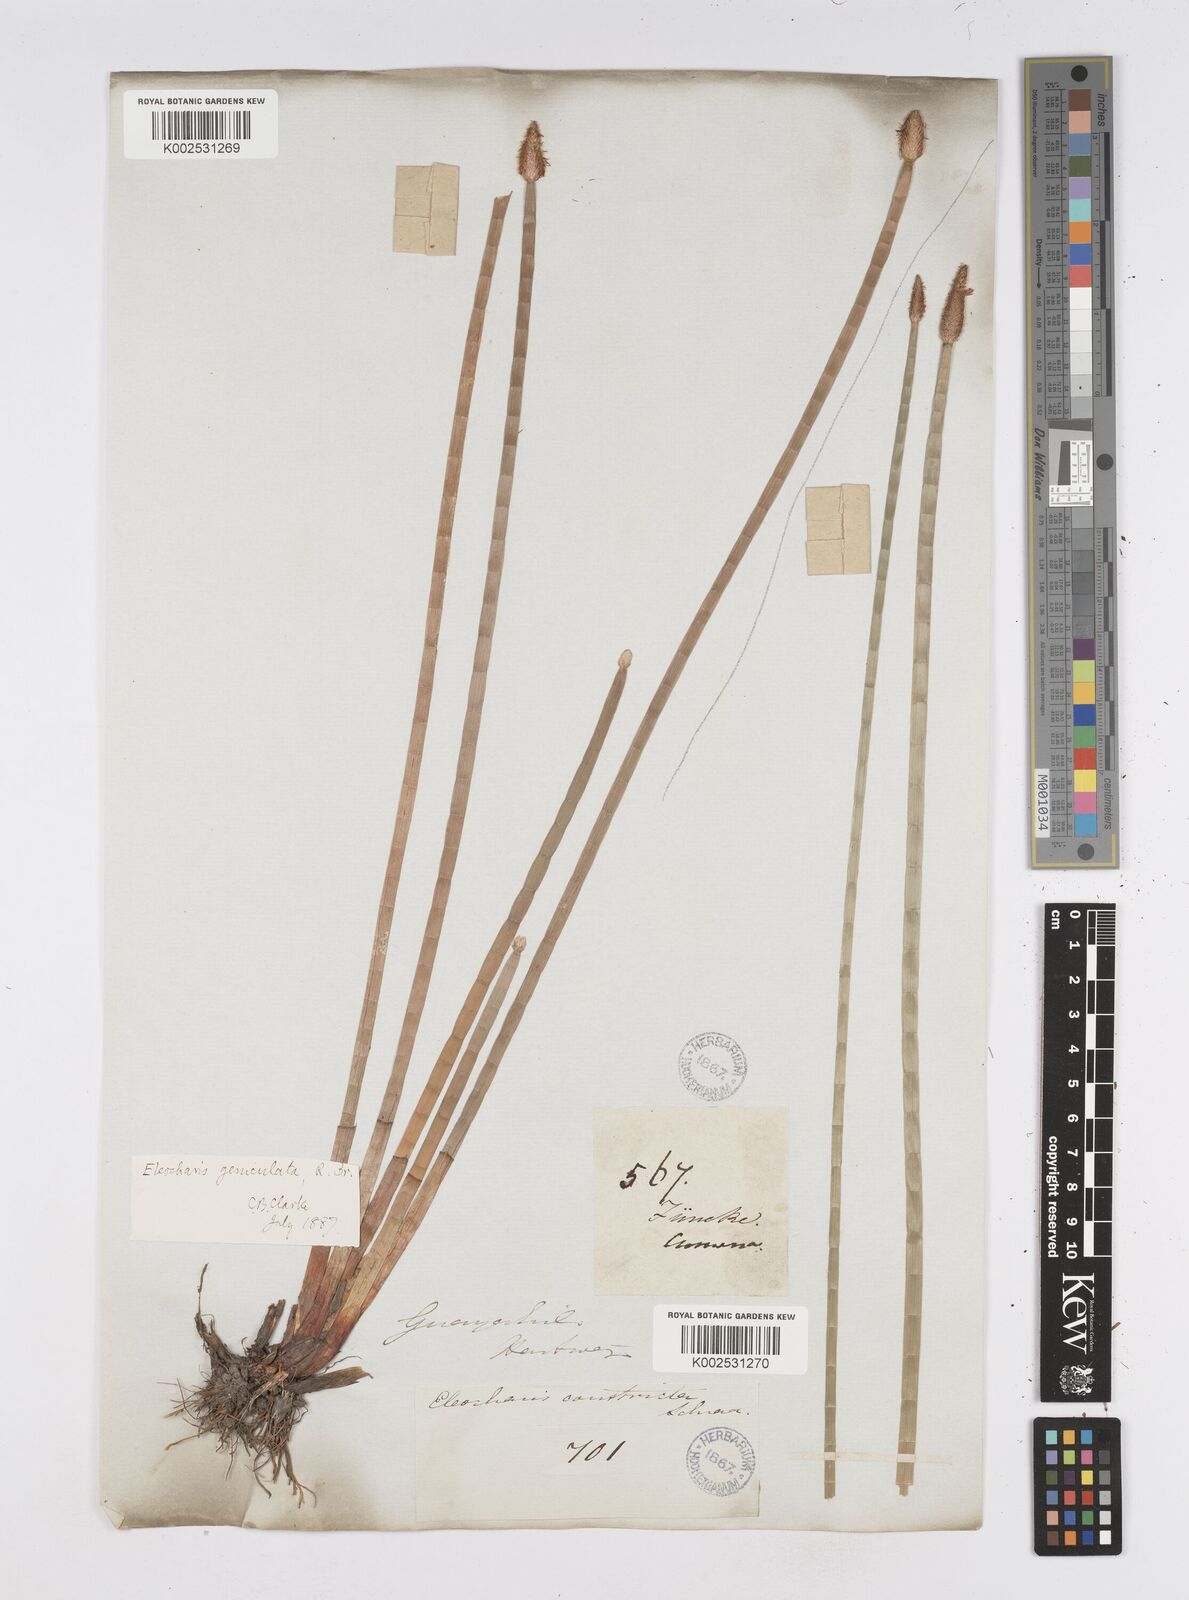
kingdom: Plantae
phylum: Tracheophyta
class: Liliopsida
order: Poales
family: Cyperaceae
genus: Eleocharis
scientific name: Eleocharis elegans
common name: Elegant spike-rush
